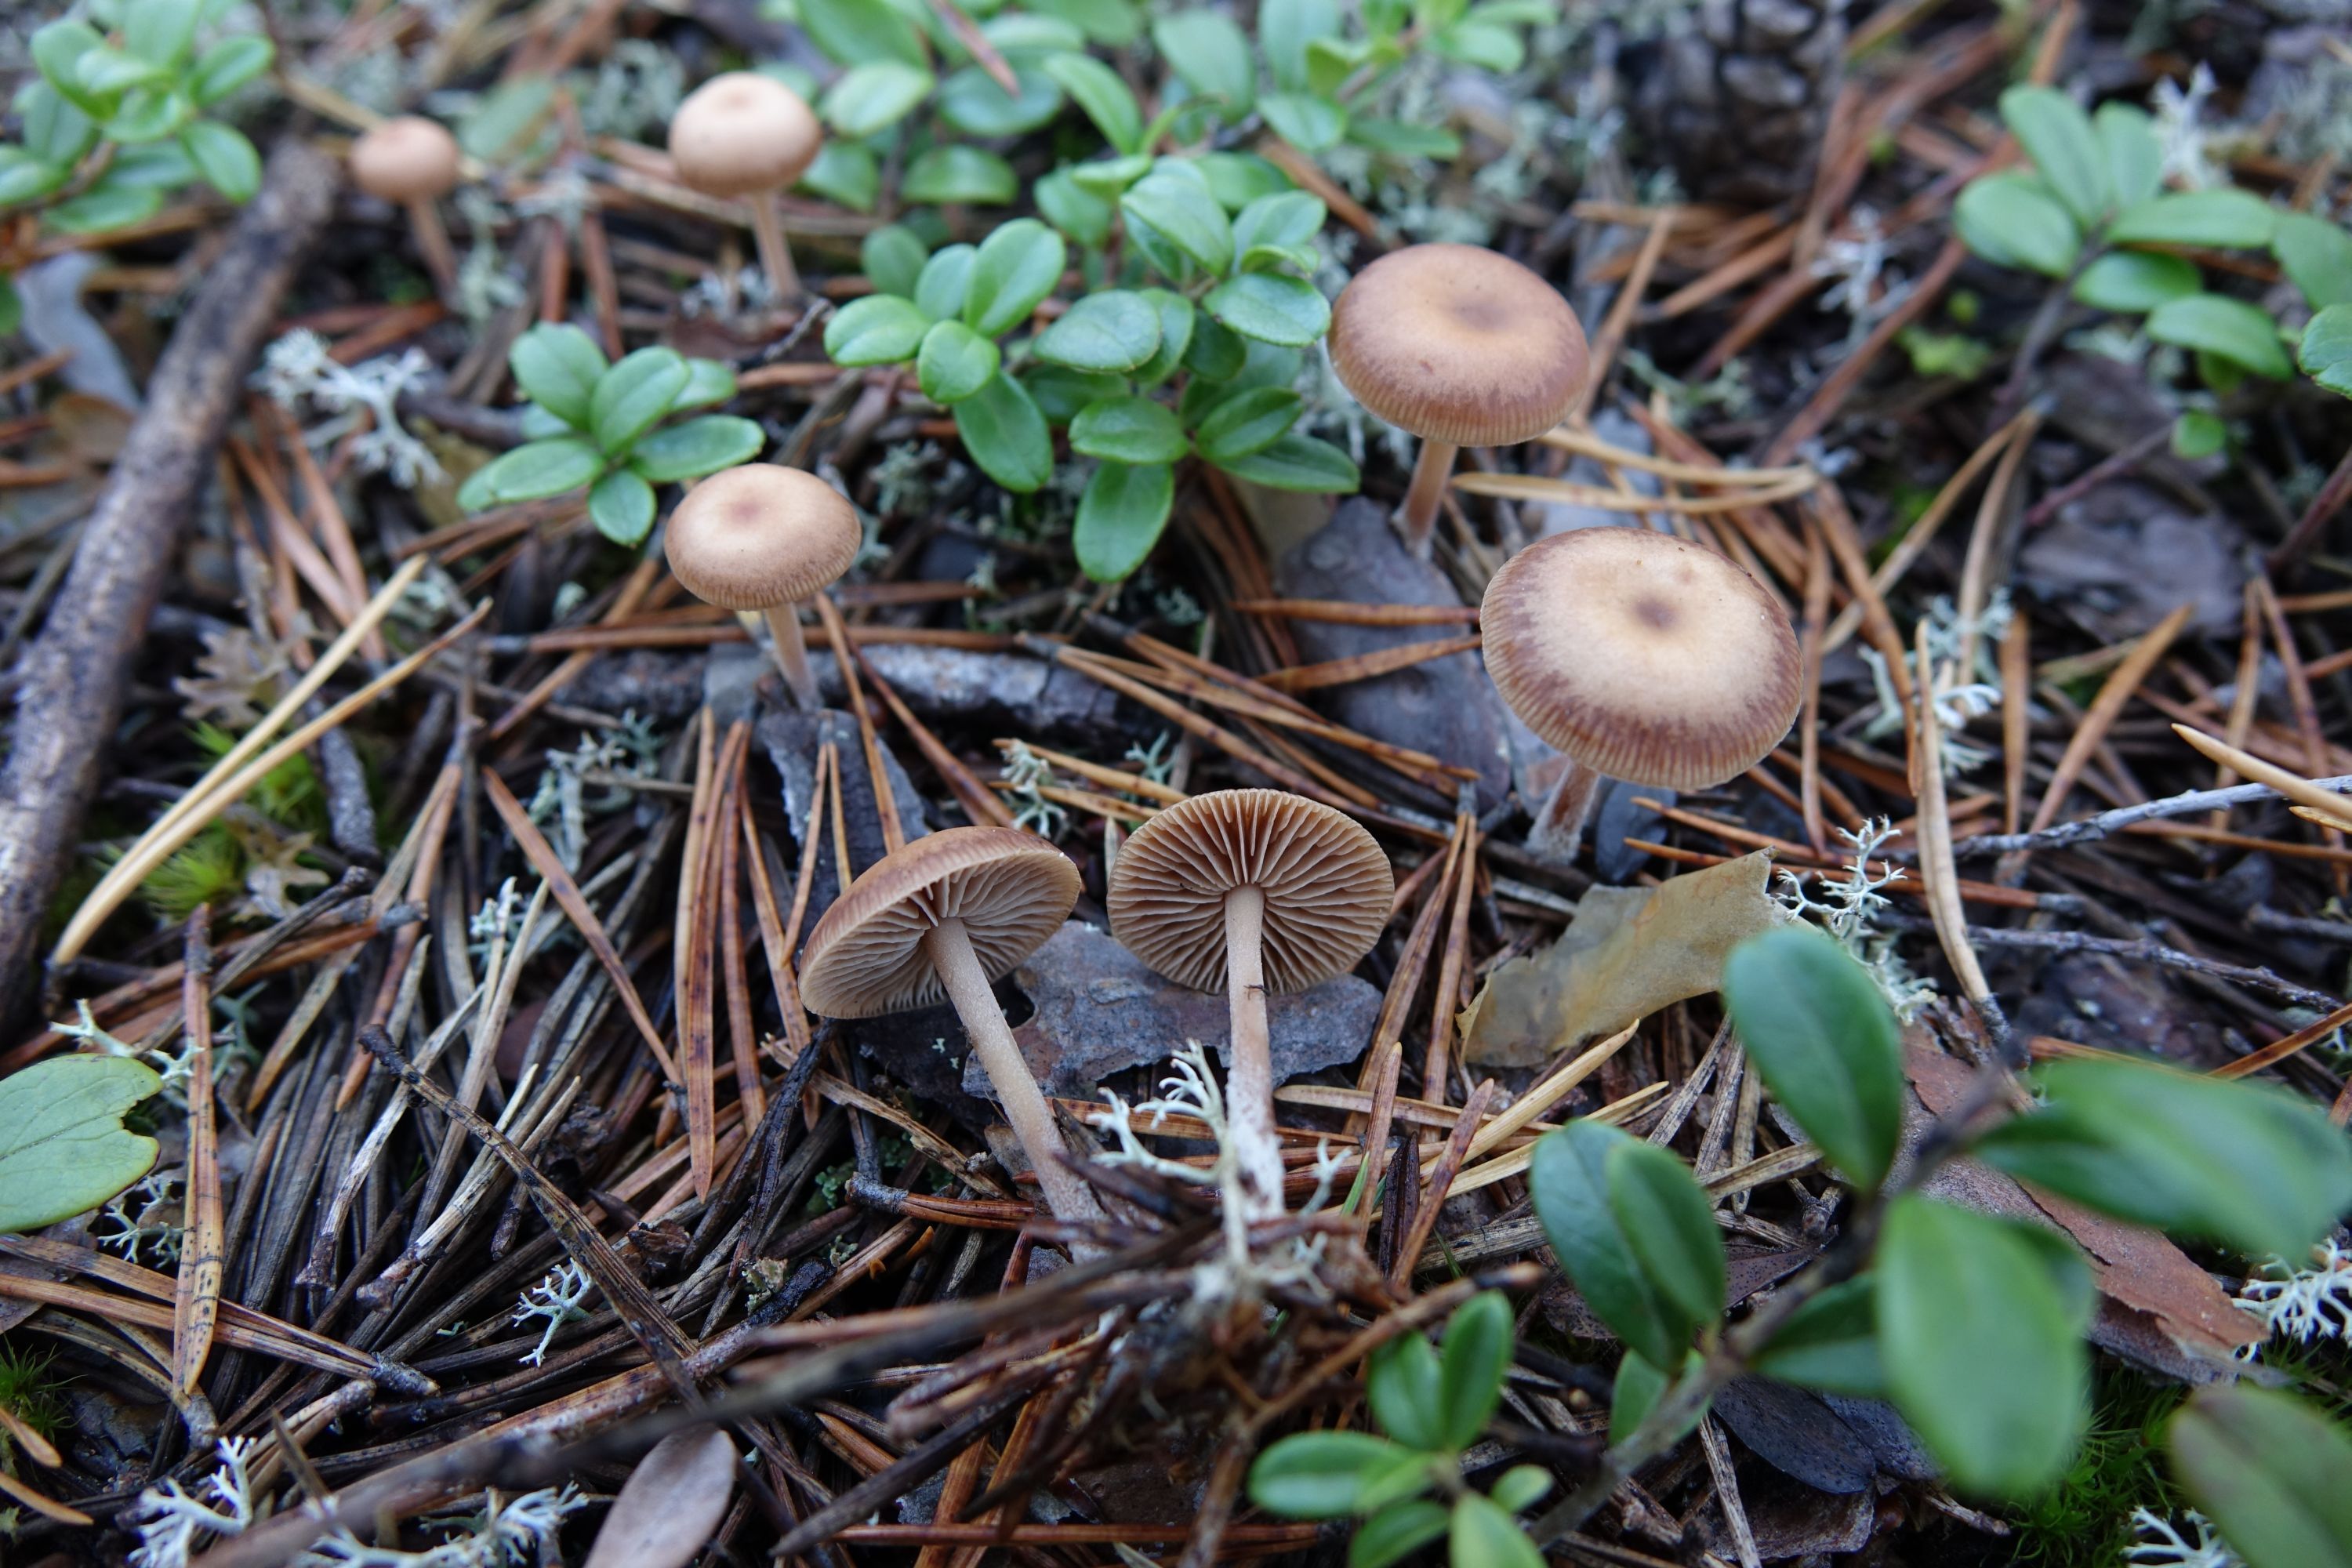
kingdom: Fungi
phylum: Basidiomycota
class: Agaricomycetes
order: Agaricales
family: Omphalotaceae
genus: Gymnopus
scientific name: Gymnopus putillus
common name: Pine toughshank
